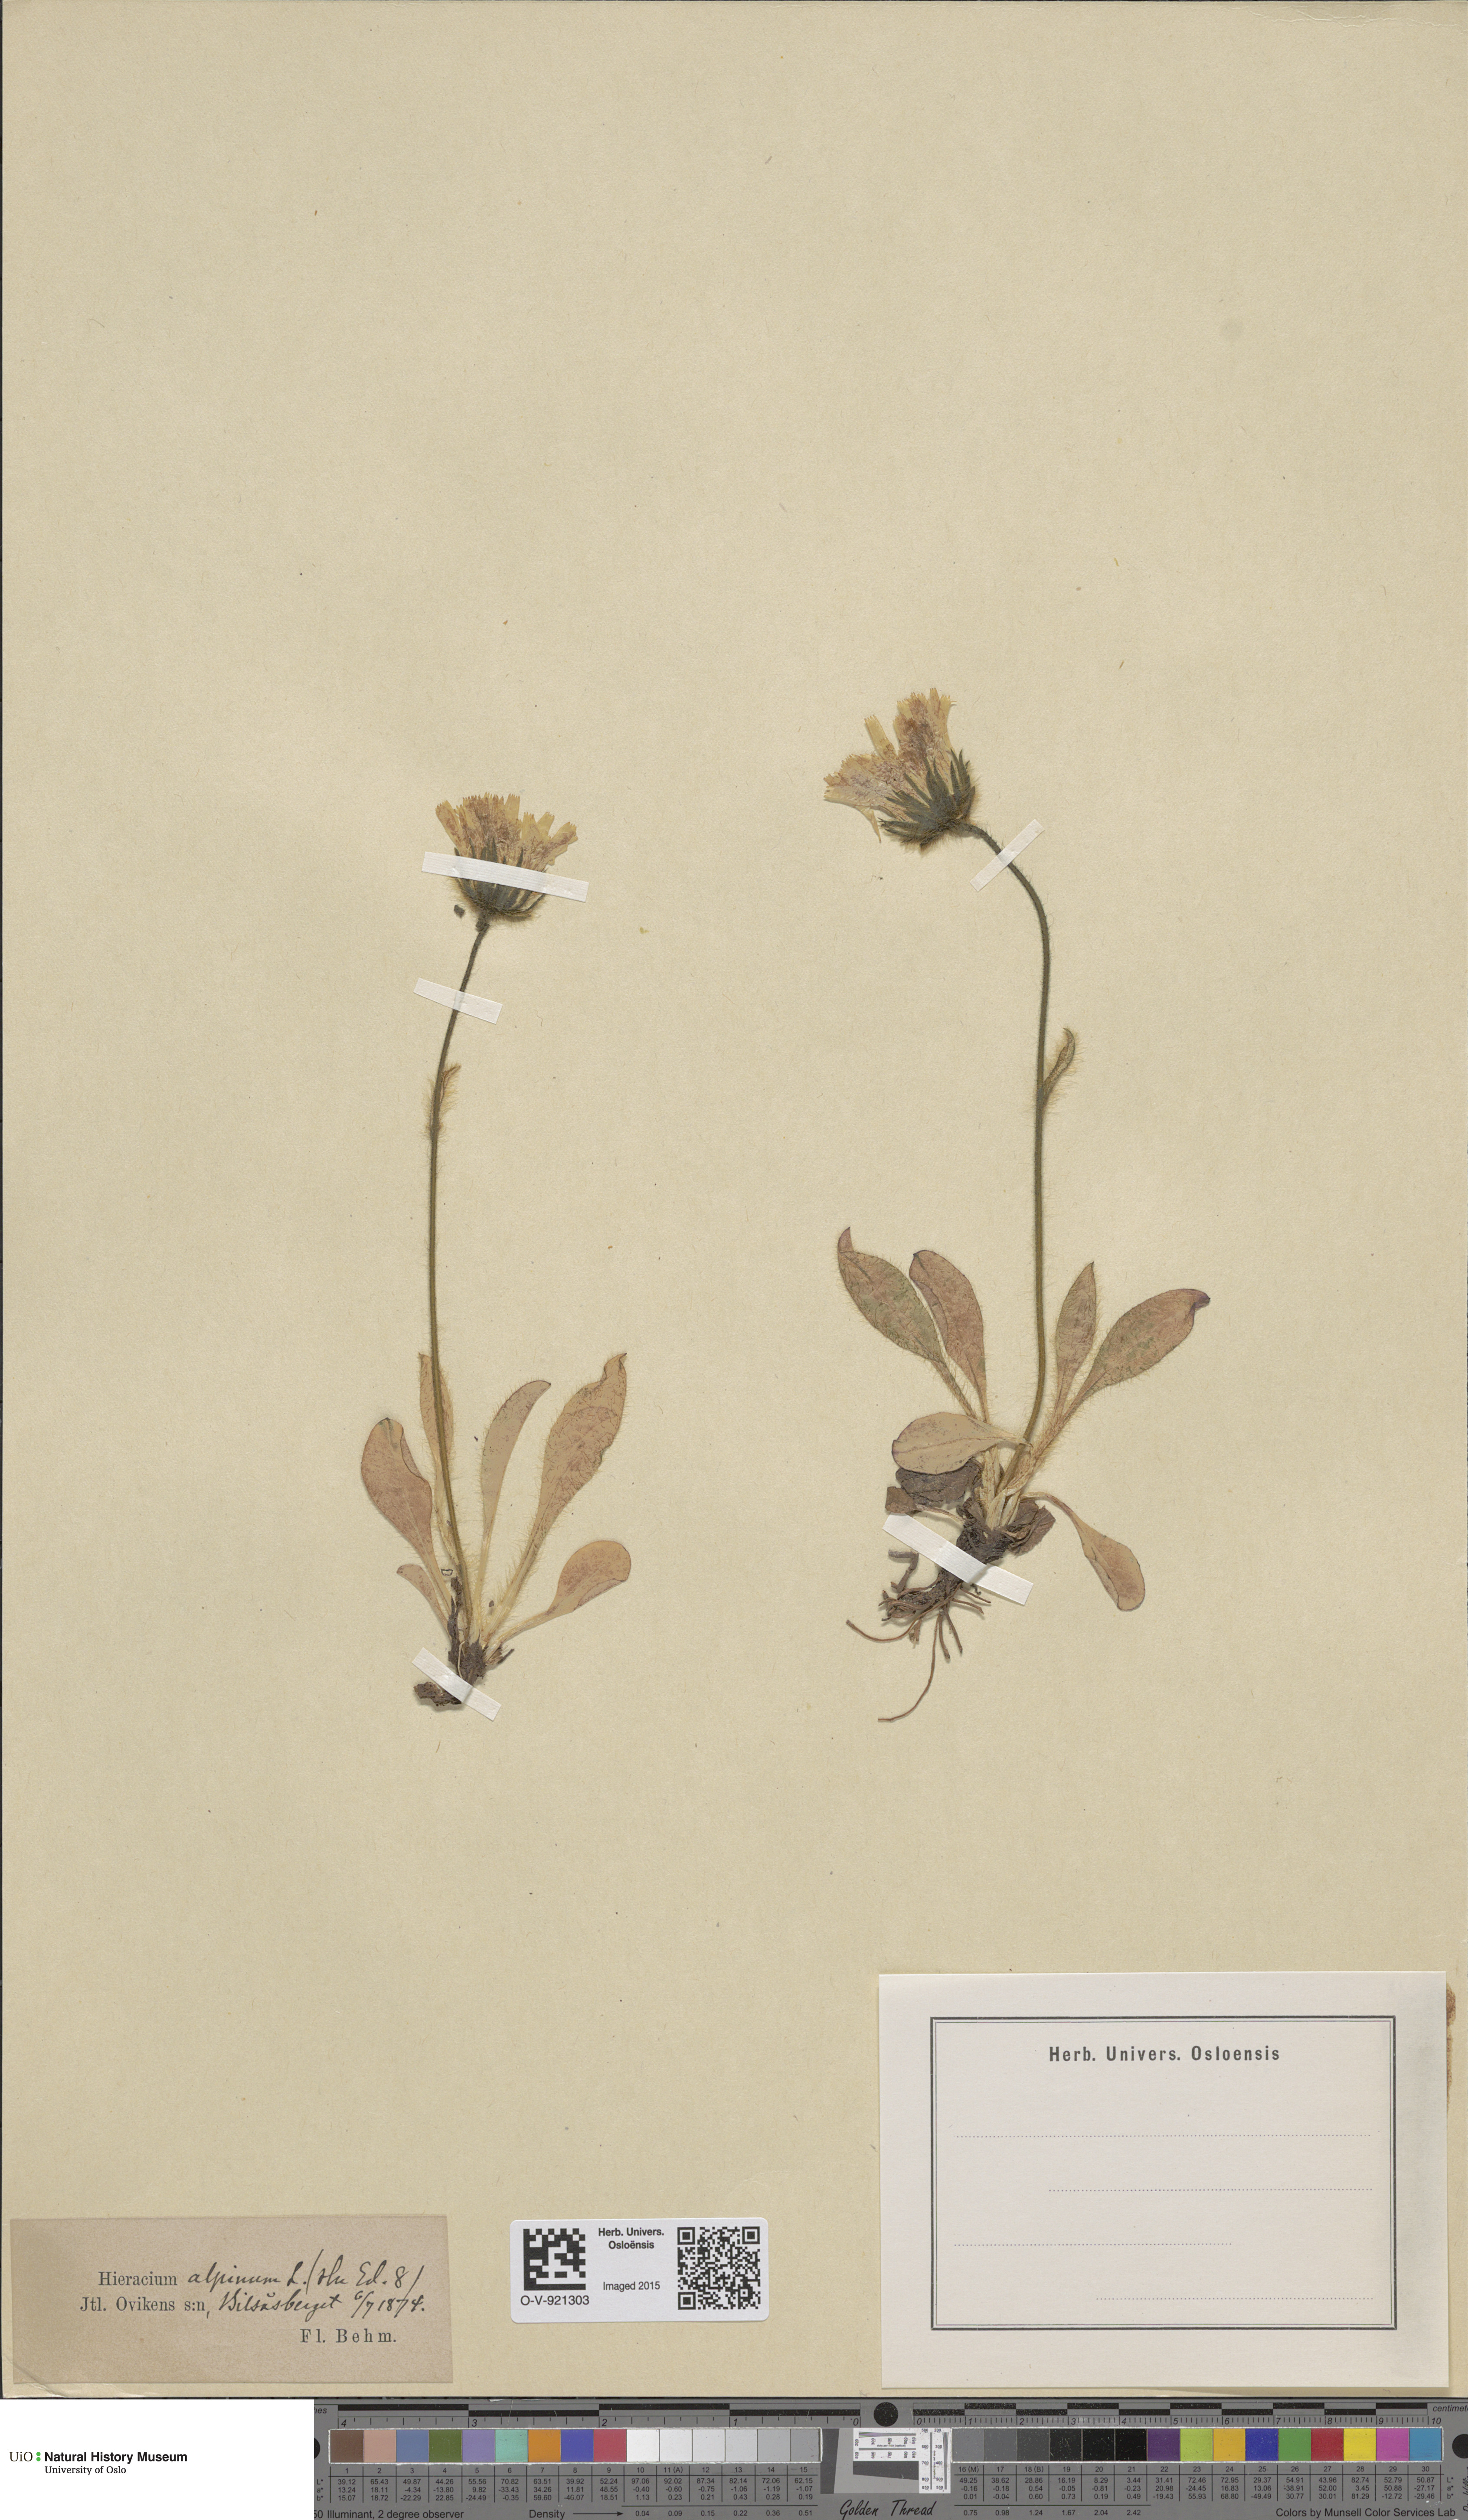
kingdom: Plantae
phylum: Tracheophyta
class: Magnoliopsida
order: Asterales
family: Asteraceae
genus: Hieracium
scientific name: Hieracium alpinum
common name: Alpine hawkweed
